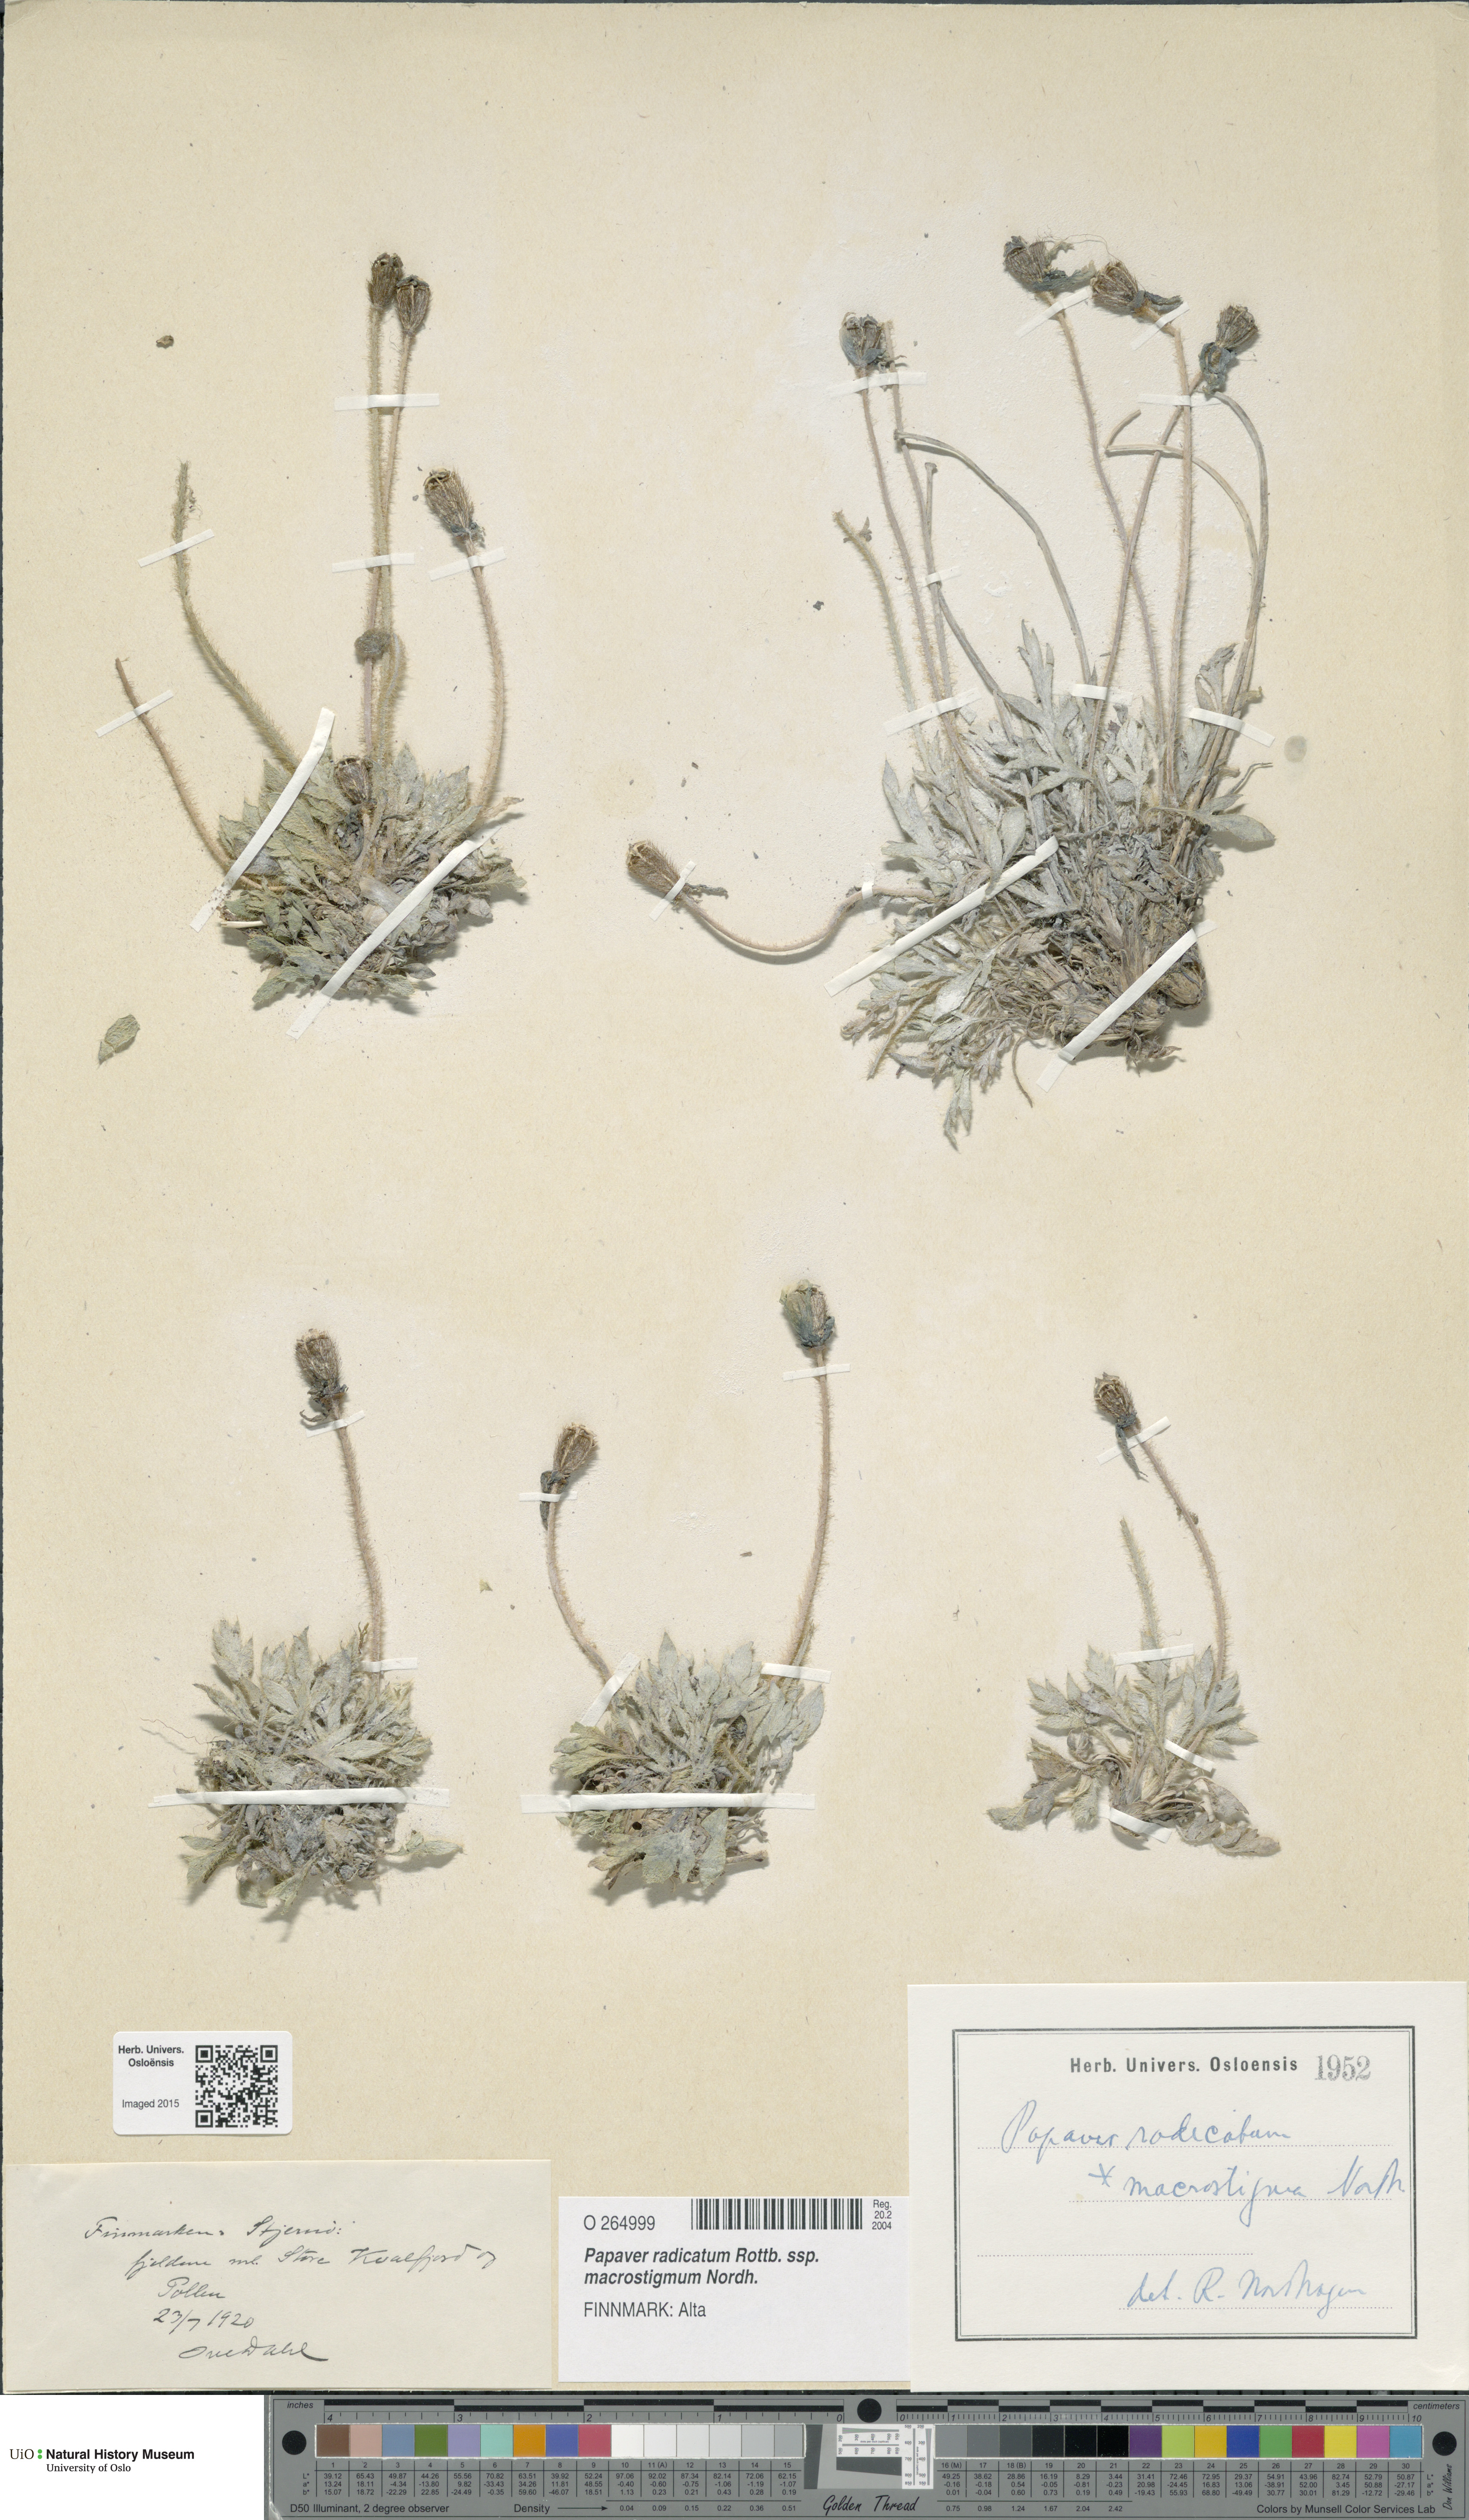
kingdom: Plantae
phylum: Tracheophyta
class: Magnoliopsida
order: Ranunculales
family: Papaveraceae
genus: Papaver
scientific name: Papaver radicatum
